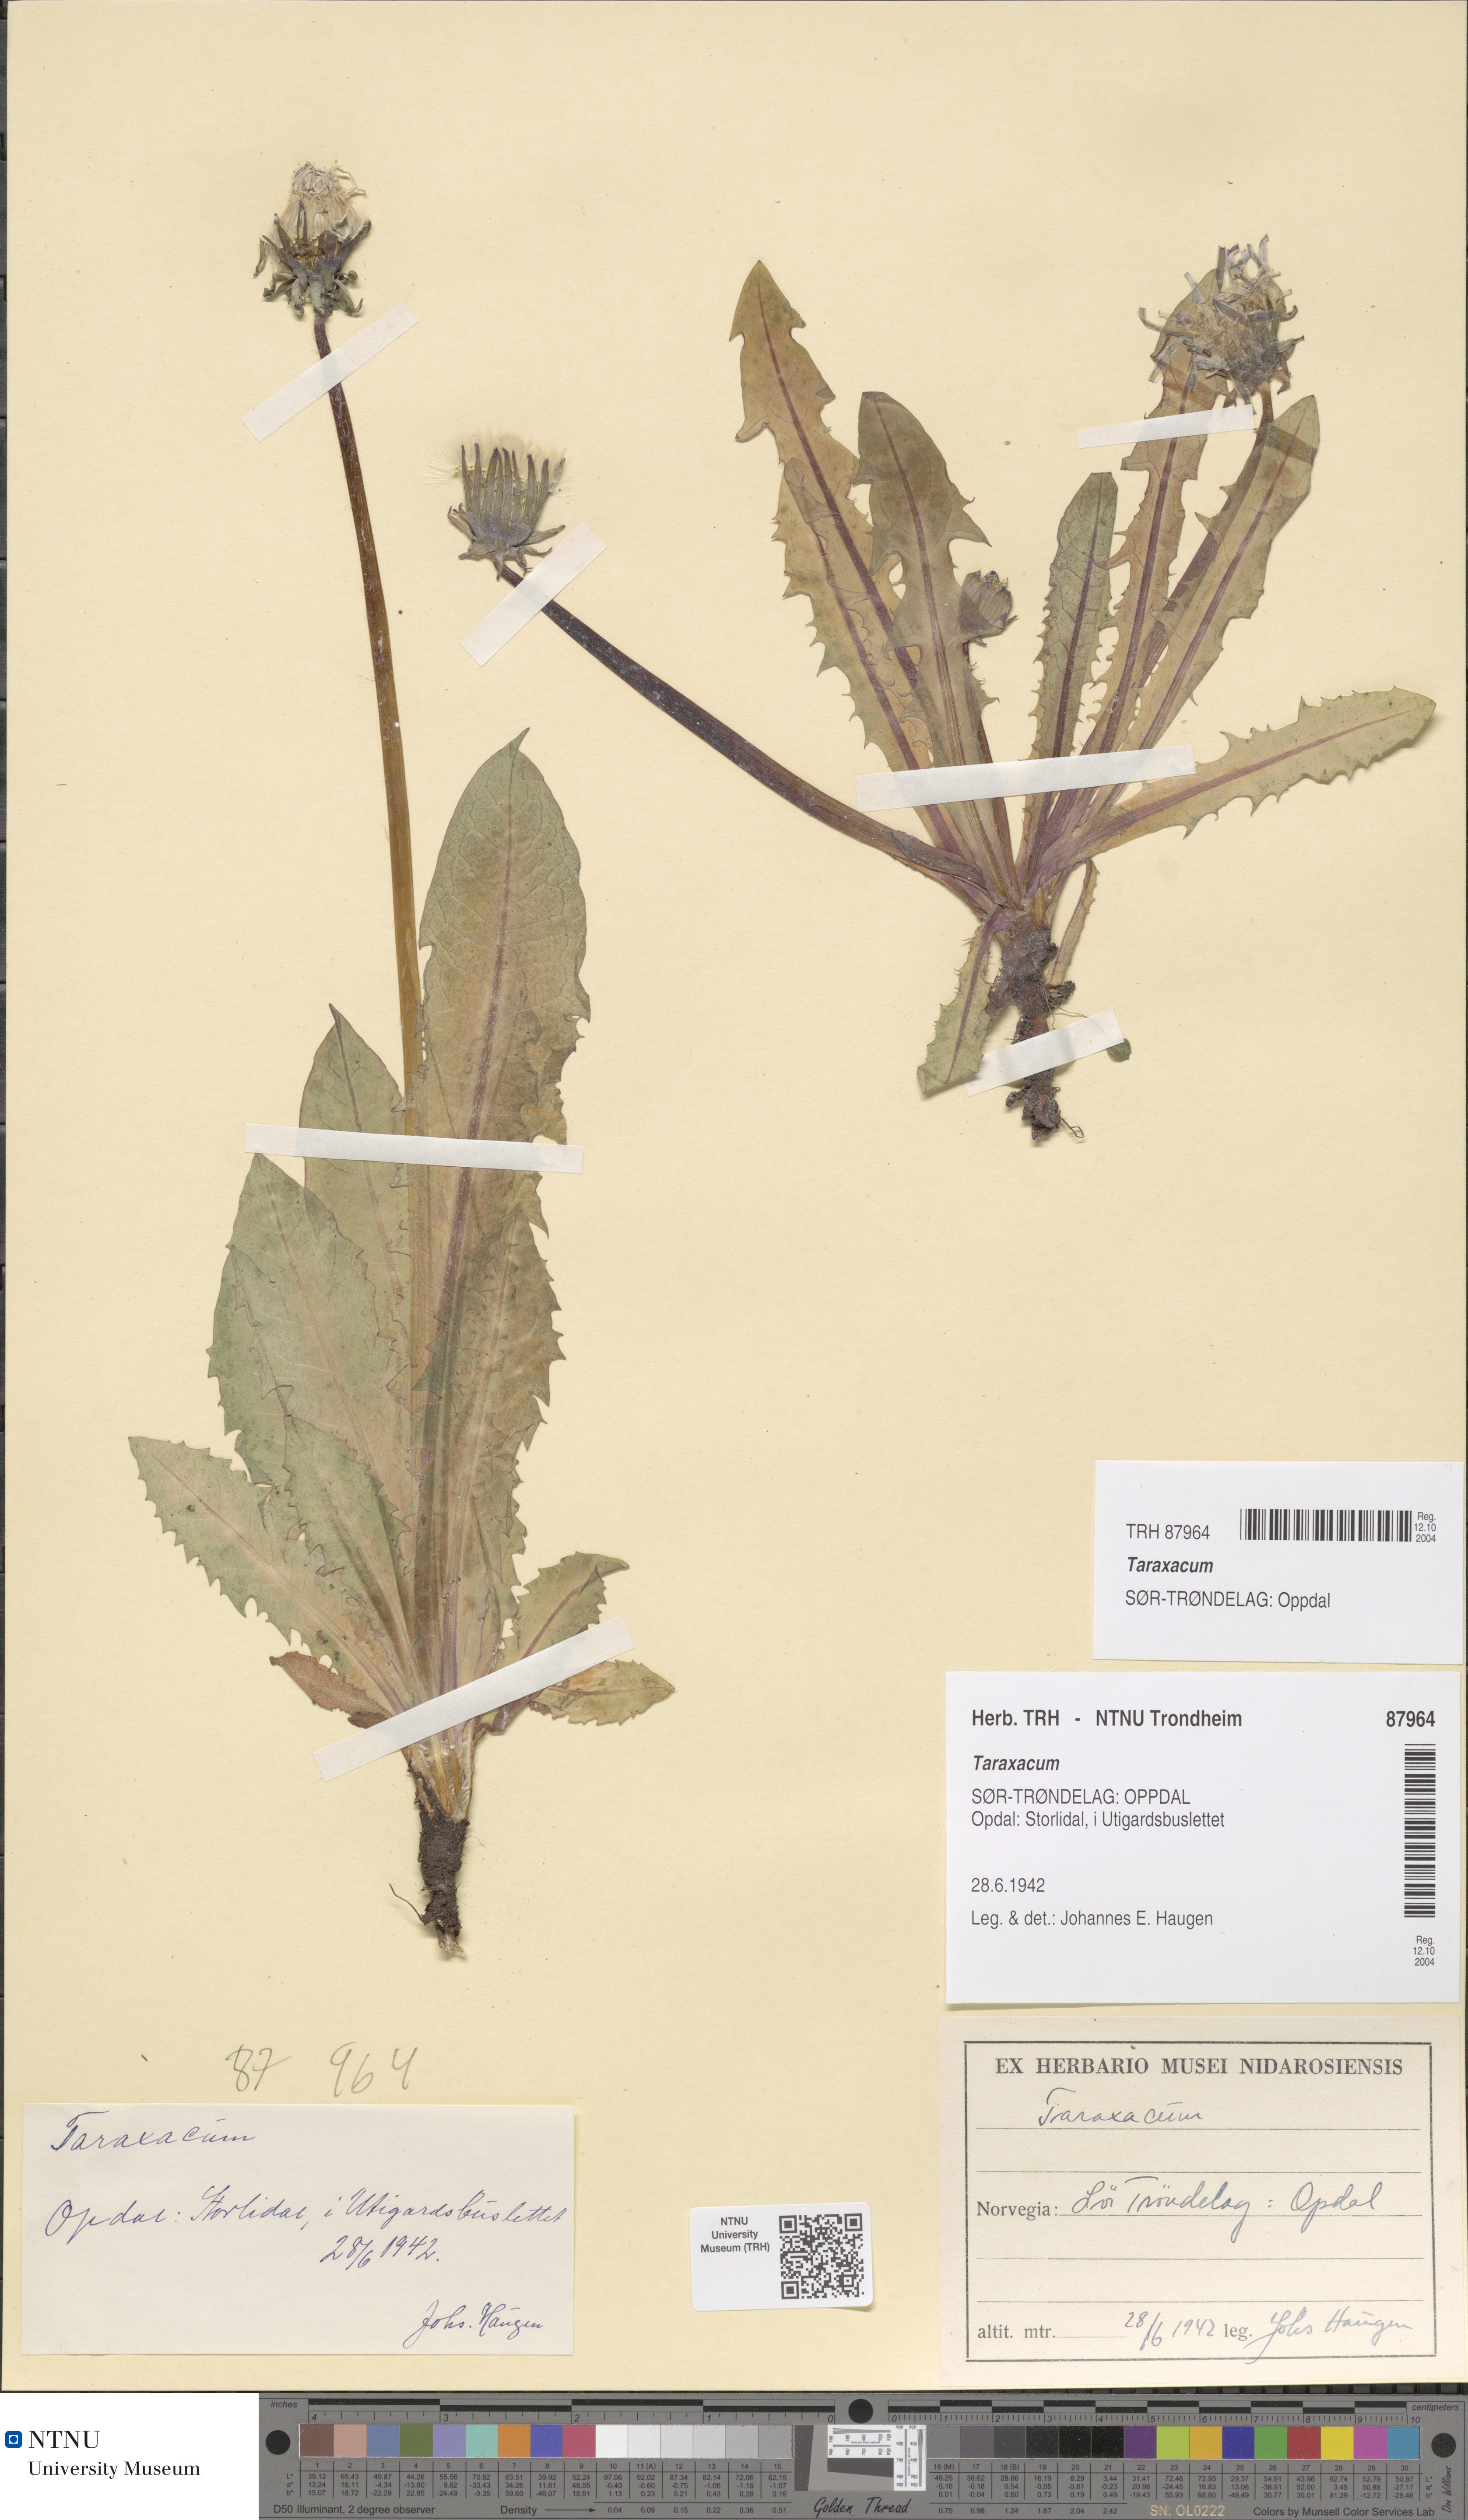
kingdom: Plantae
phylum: Tracheophyta
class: Magnoliopsida
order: Asterales
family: Asteraceae
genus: Taraxacum
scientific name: Taraxacum
